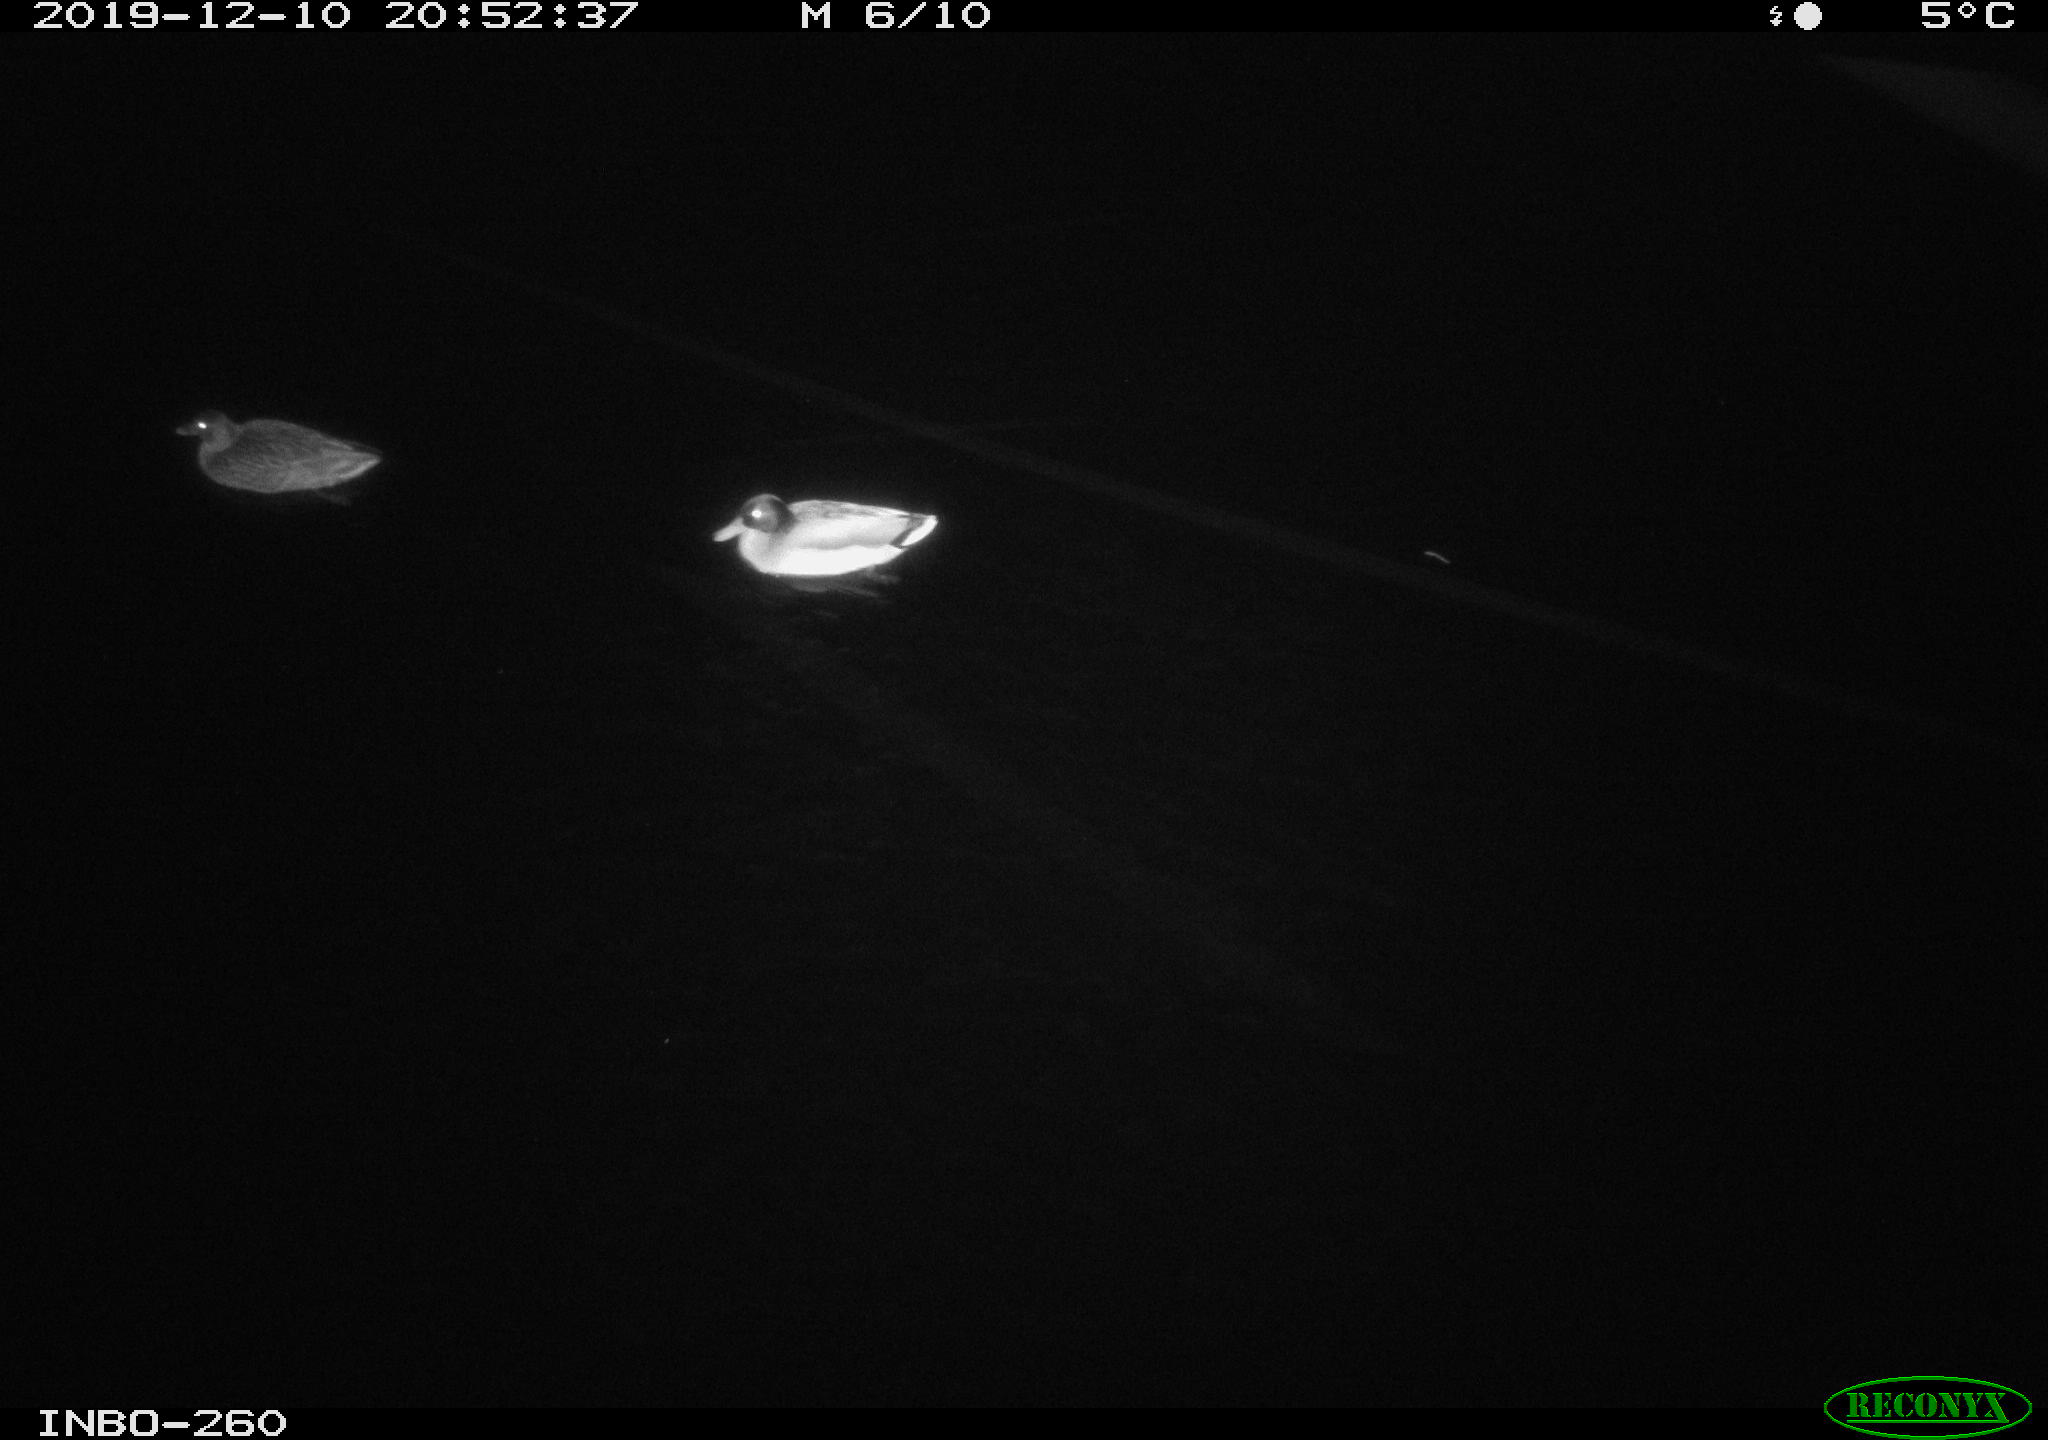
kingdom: Animalia
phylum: Chordata
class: Aves
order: Anseriformes
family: Anatidae
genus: Anas
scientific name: Anas platyrhynchos
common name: Mallard
